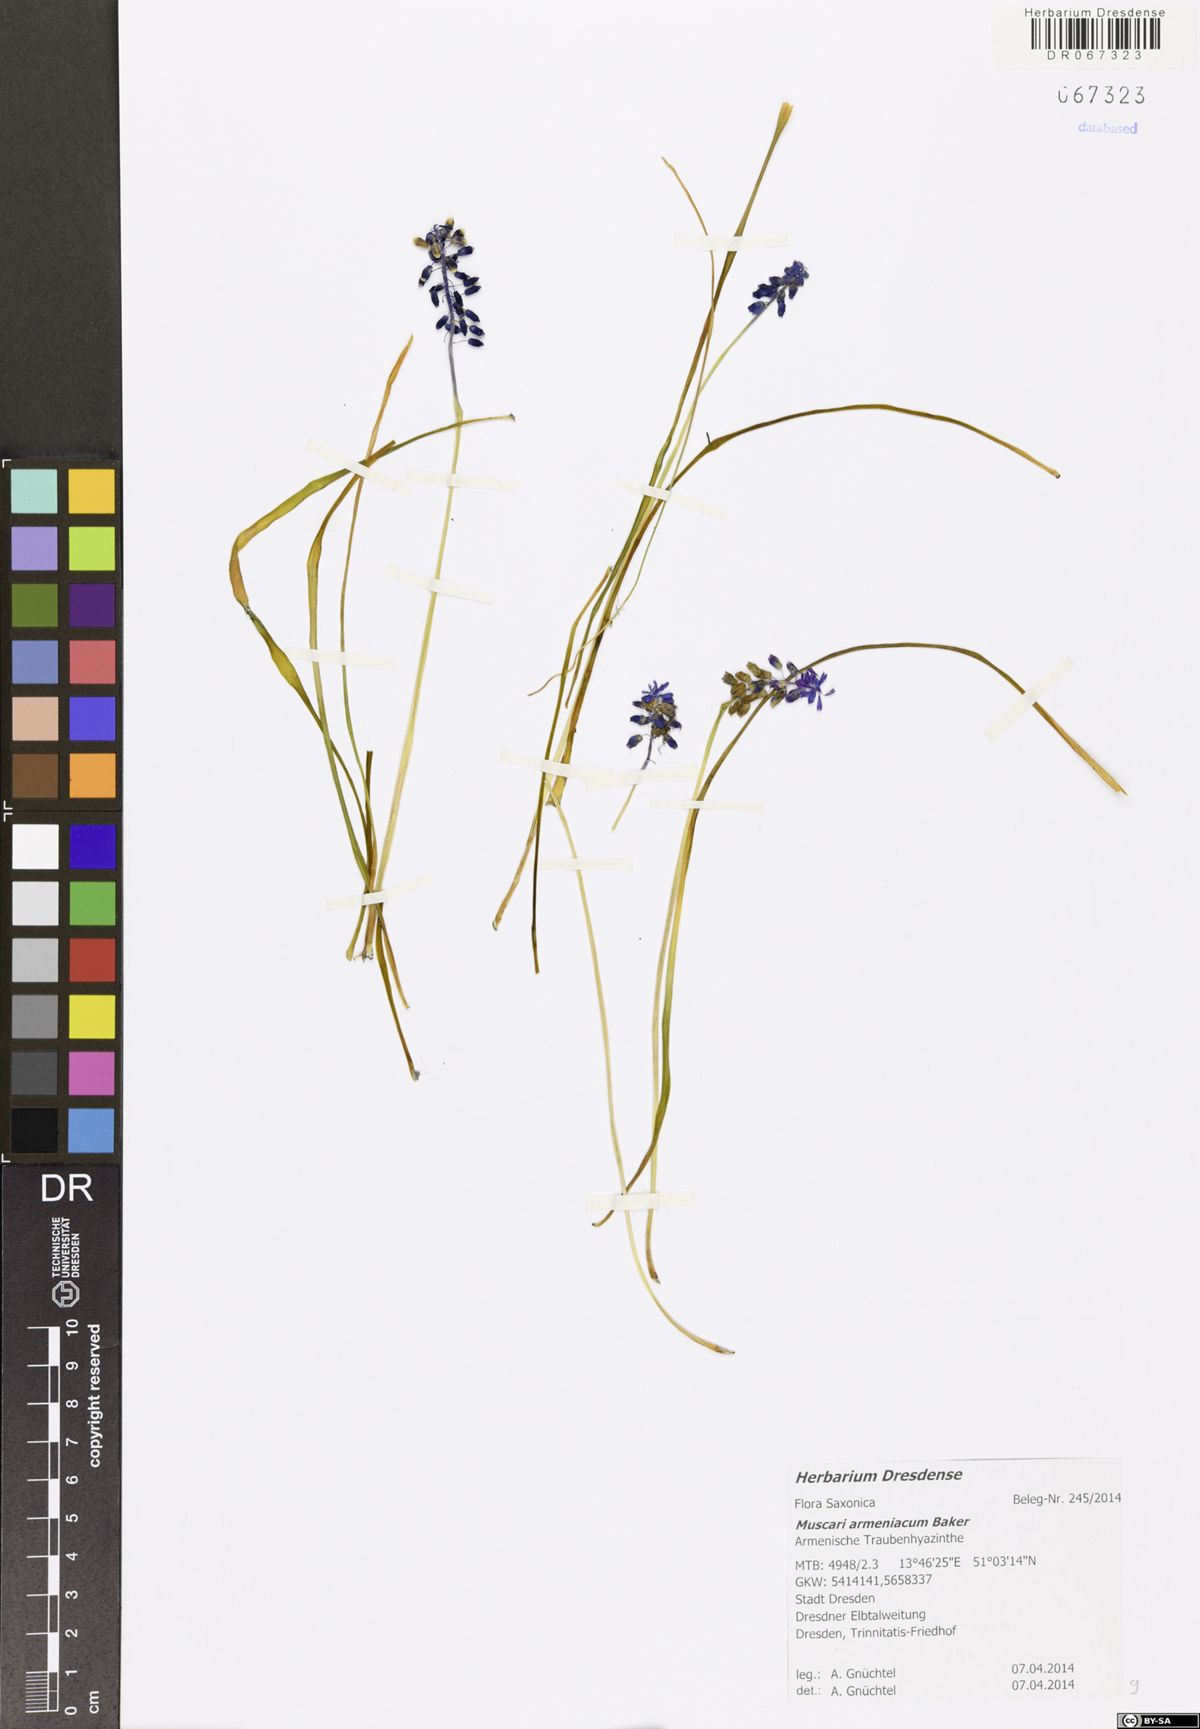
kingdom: Plantae
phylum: Tracheophyta
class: Liliopsida
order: Asparagales
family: Asparagaceae
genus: Muscari
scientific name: Muscari armeniacum
